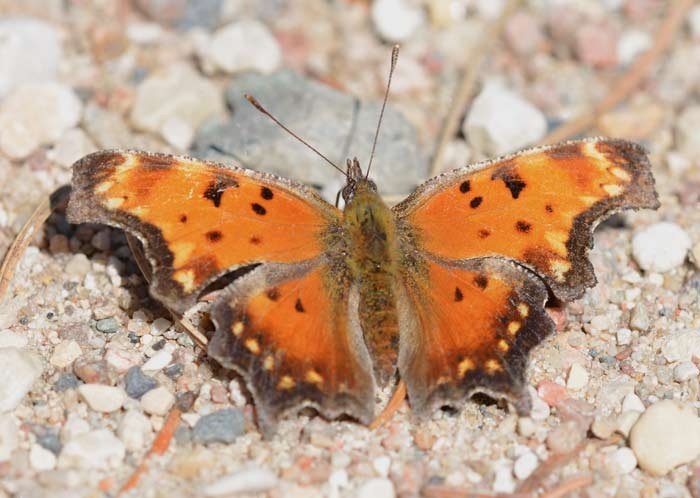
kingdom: Animalia
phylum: Arthropoda
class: Insecta
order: Lepidoptera
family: Nymphalidae
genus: Polygonia
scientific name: Polygonia progne
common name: Gray Comma
